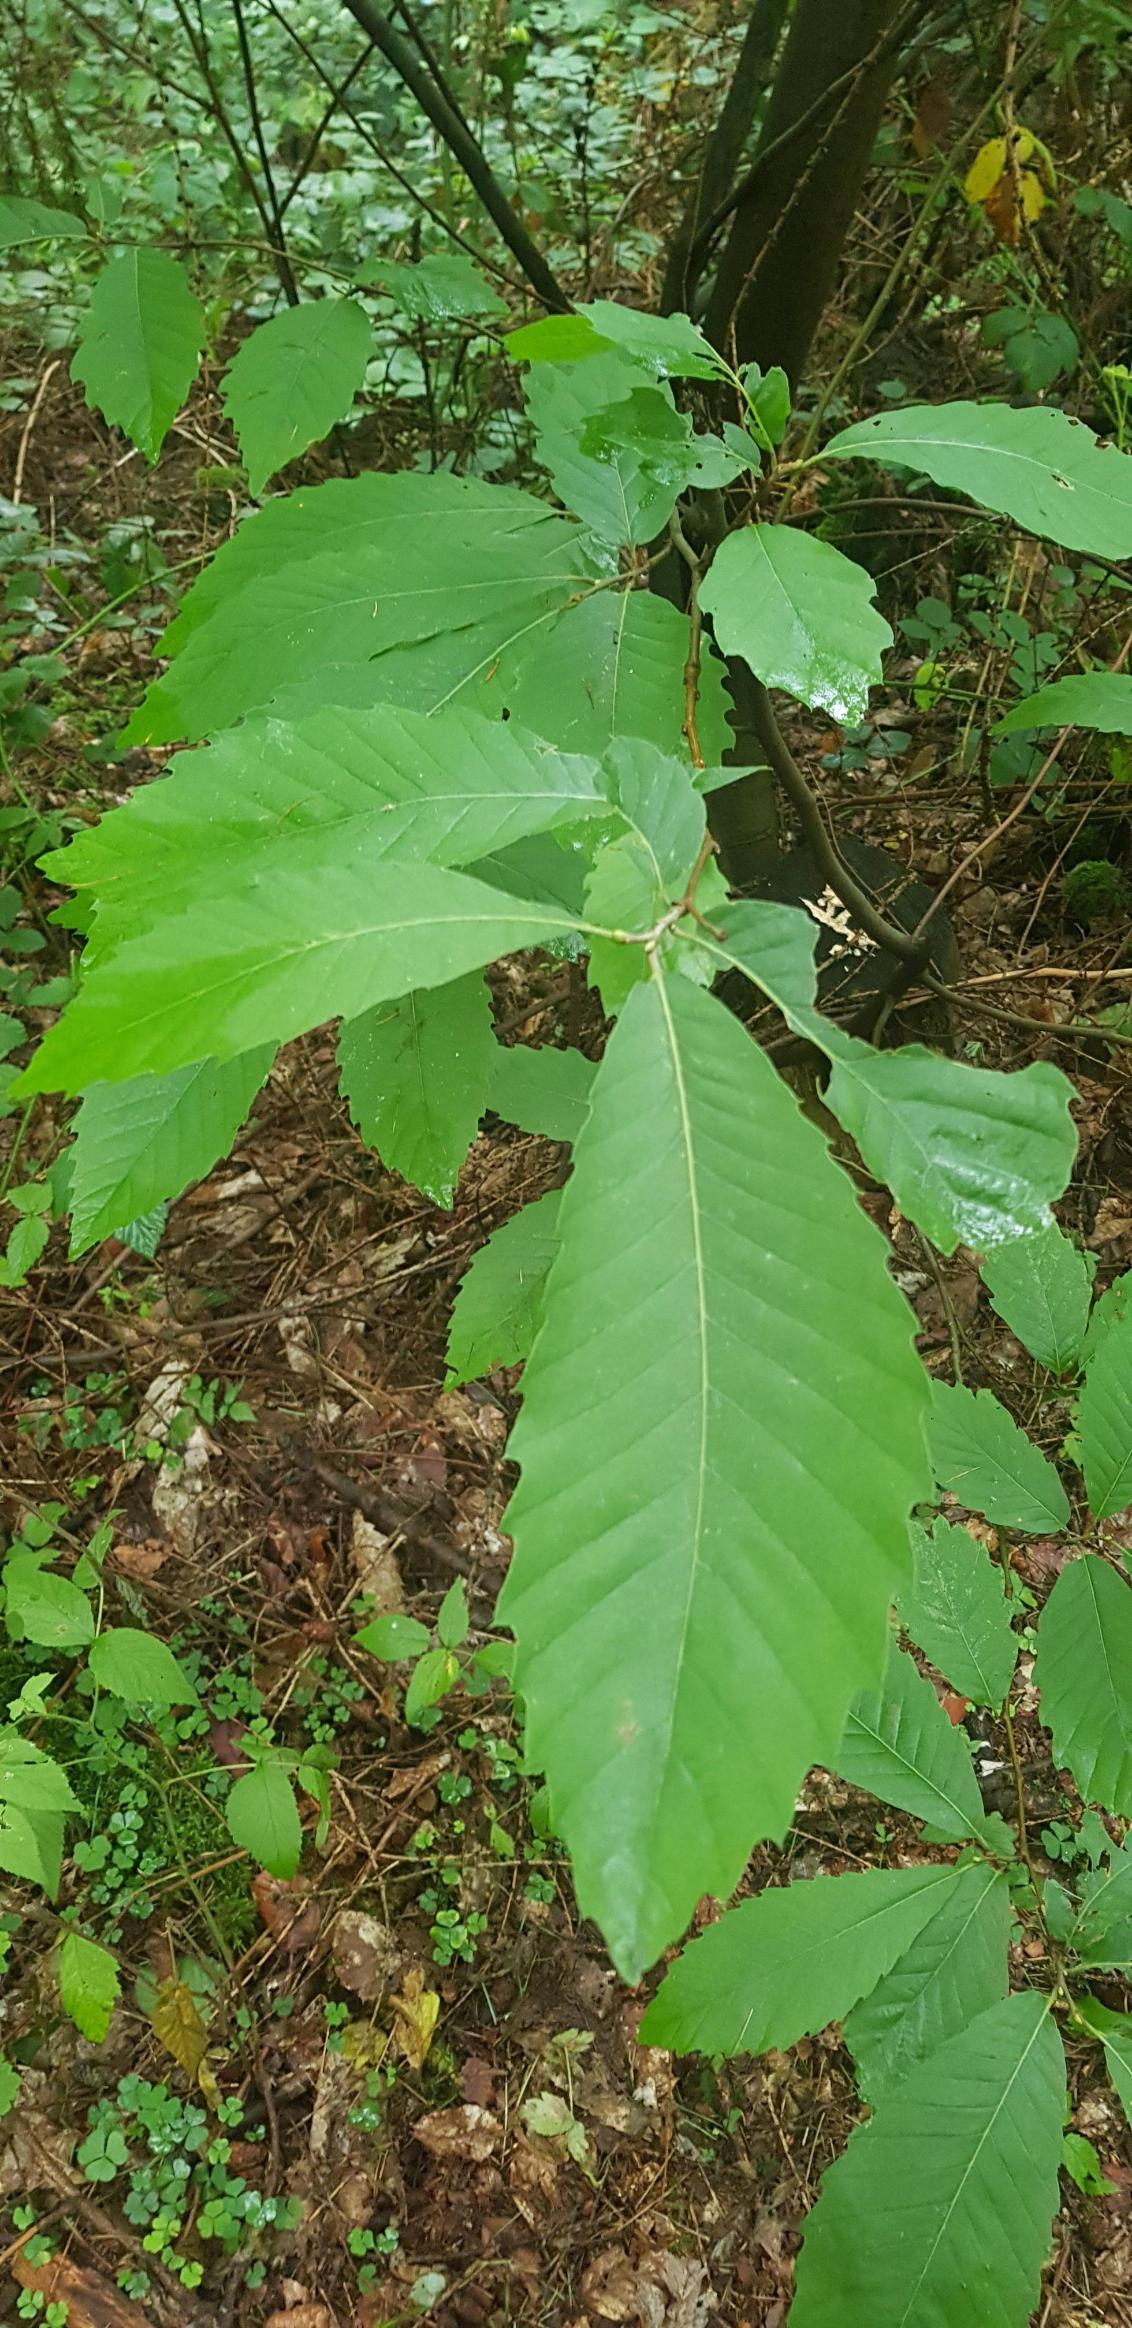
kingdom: Plantae
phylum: Tracheophyta
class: Magnoliopsida
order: Fagales
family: Fagaceae
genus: Castanea
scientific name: Castanea sativa
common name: Ægte kastanie
